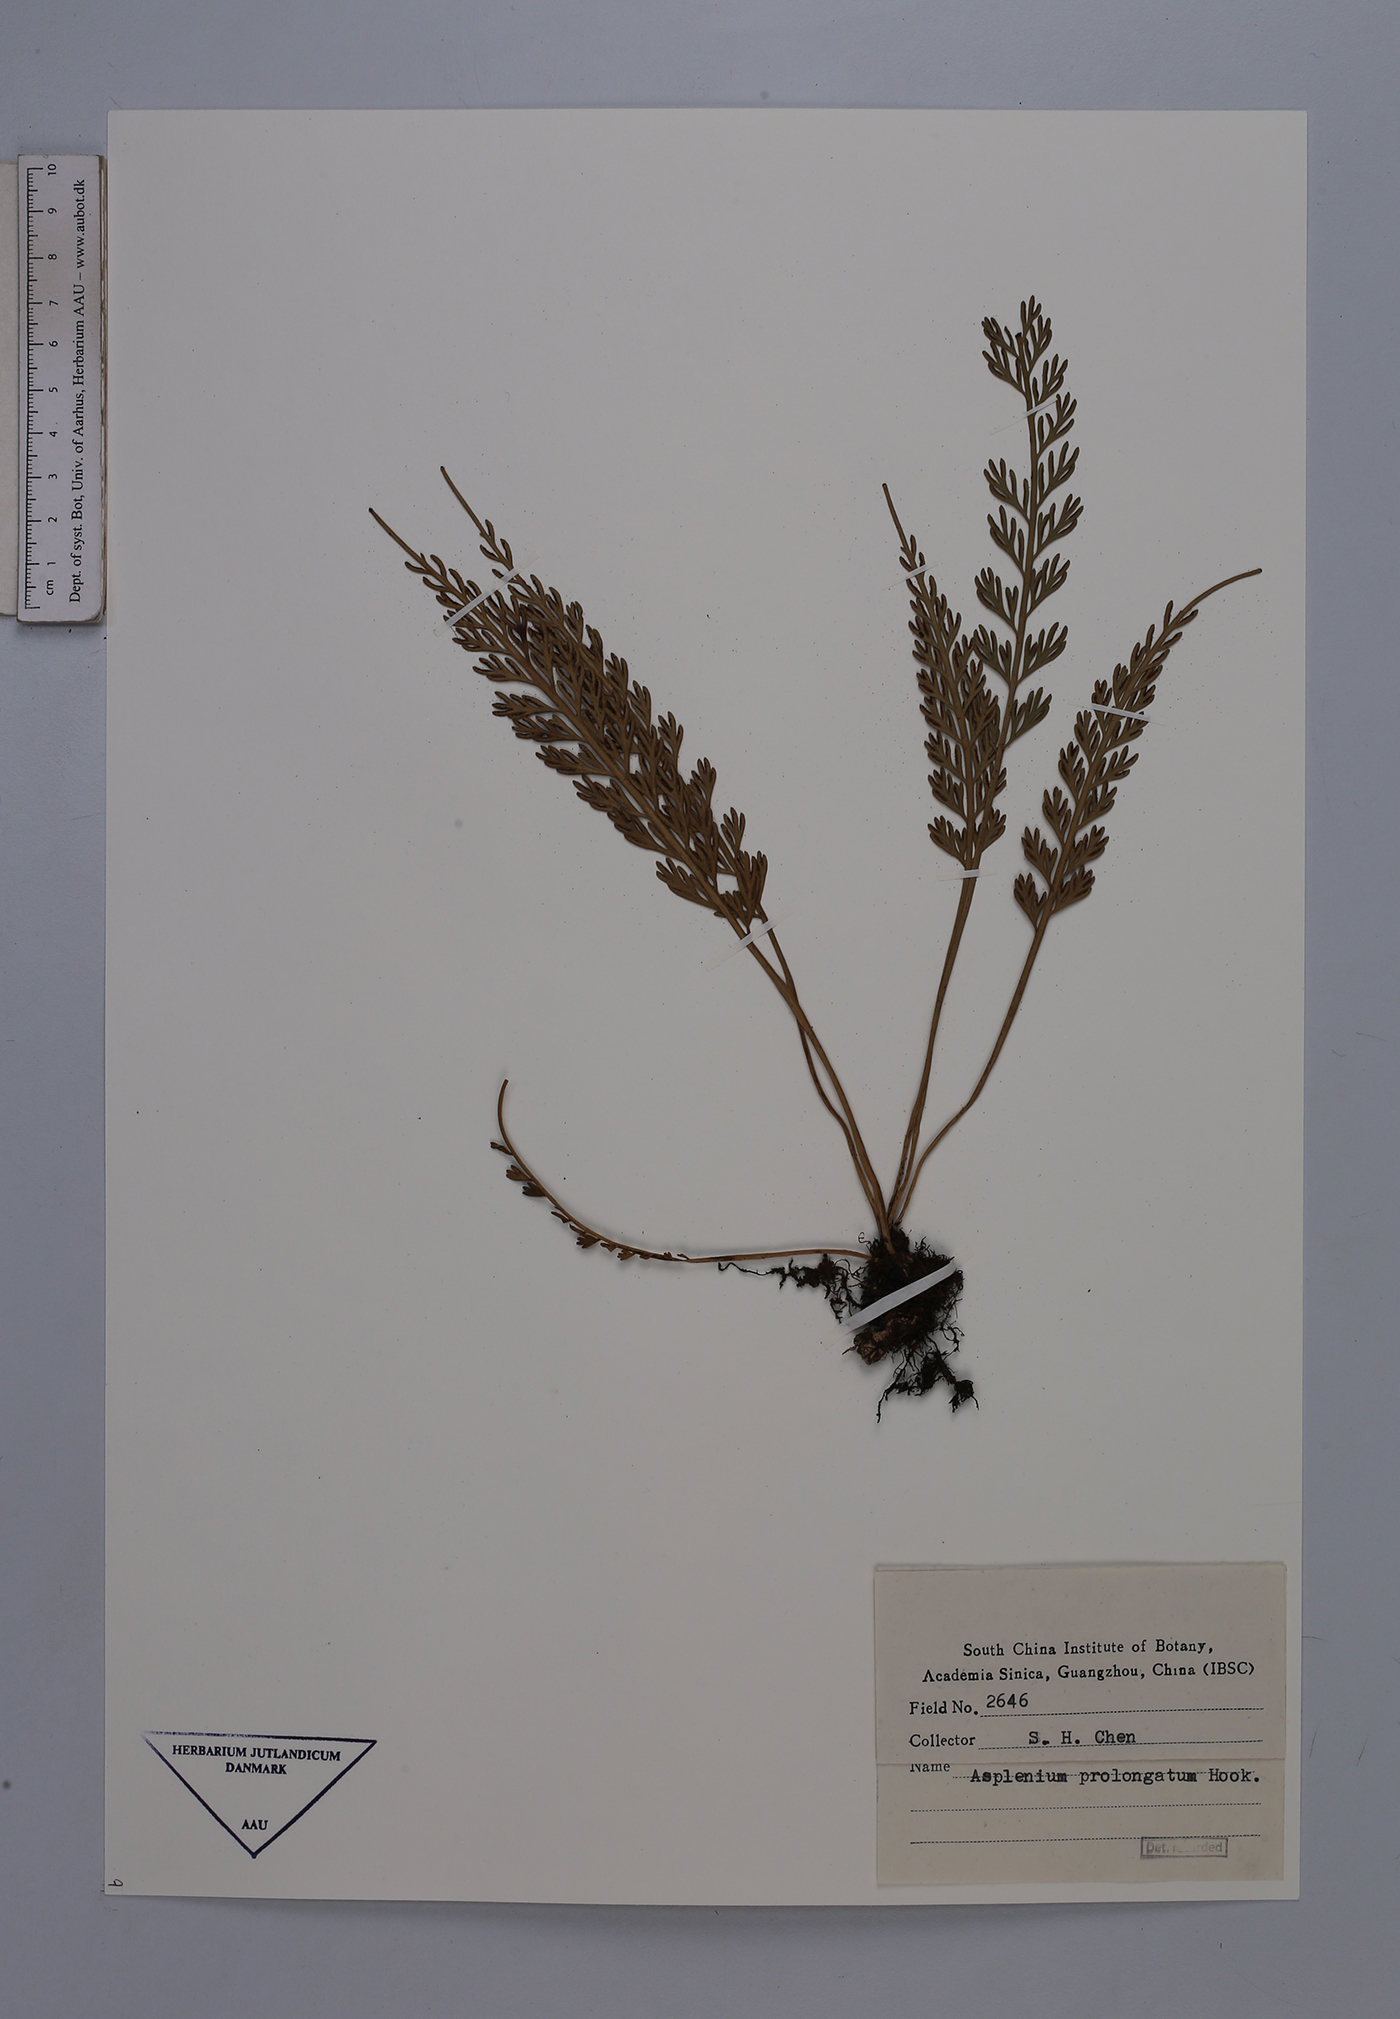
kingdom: Plantae
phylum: Tracheophyta
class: Polypodiopsida
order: Polypodiales
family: Aspleniaceae
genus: Asplenium
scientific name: Asplenium prolongatum
